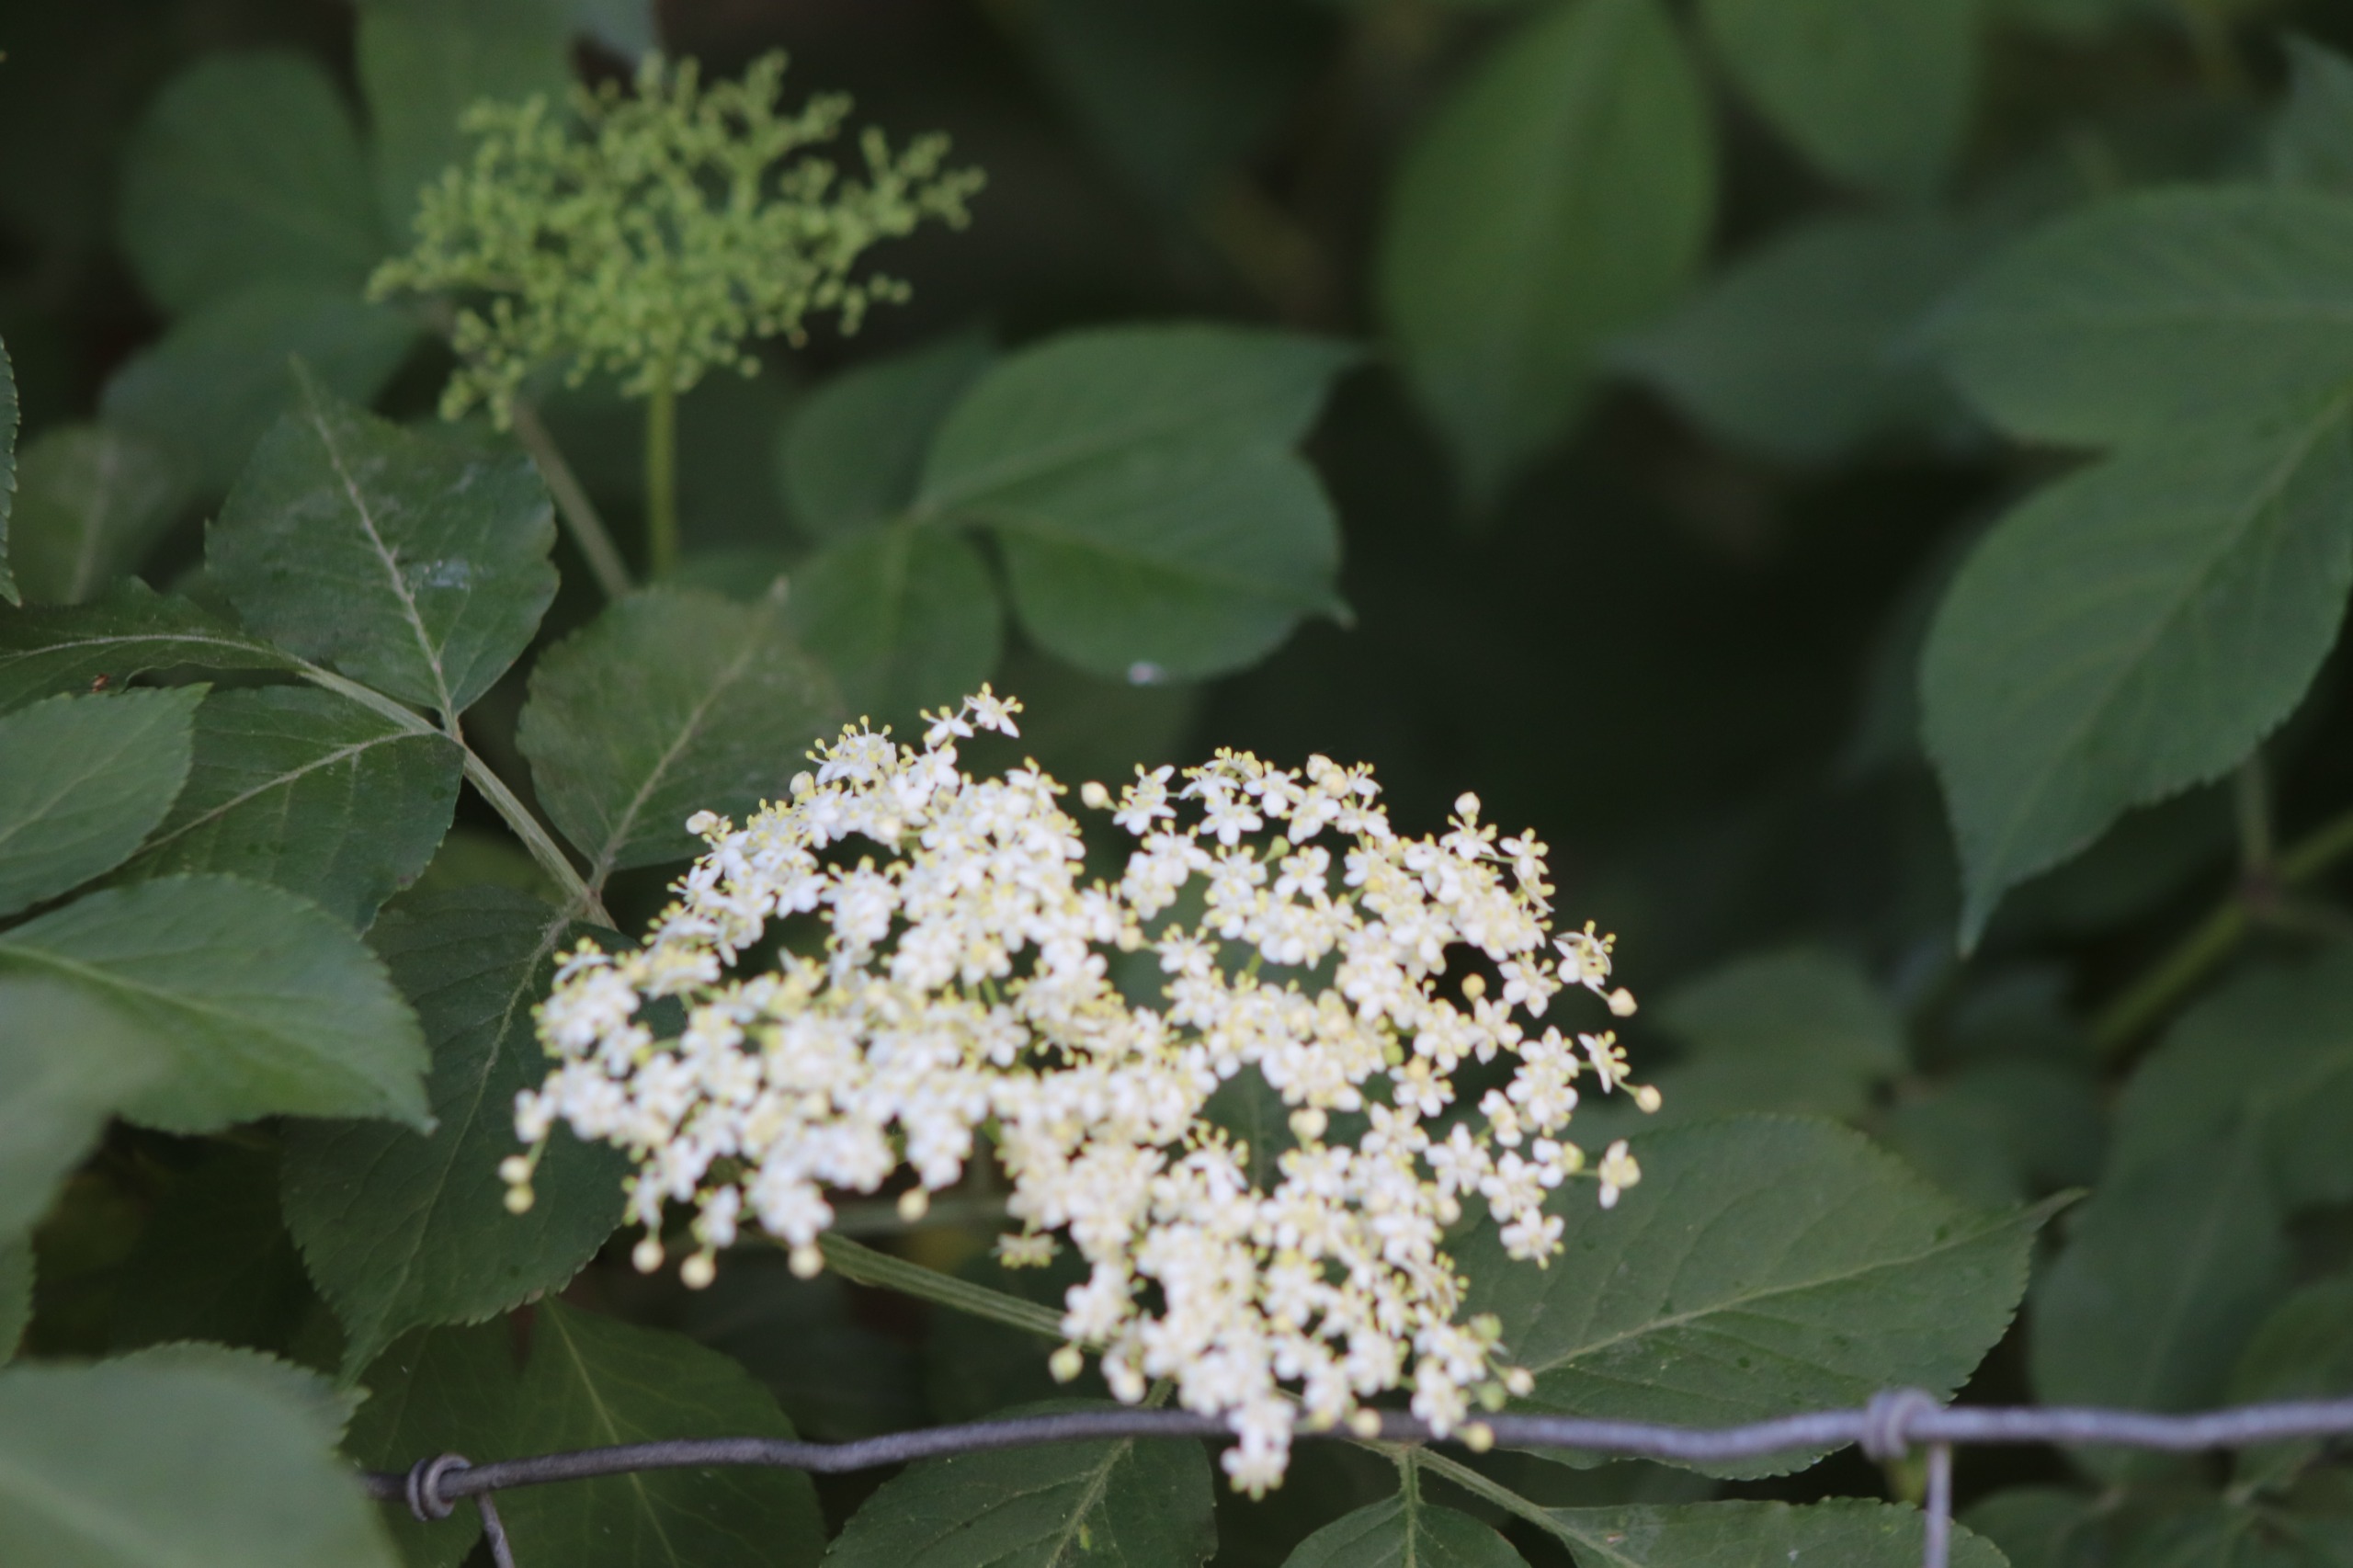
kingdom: Plantae
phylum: Tracheophyta
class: Magnoliopsida
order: Dipsacales
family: Viburnaceae
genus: Sambucus
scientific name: Sambucus nigra
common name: Almindelig hyld
